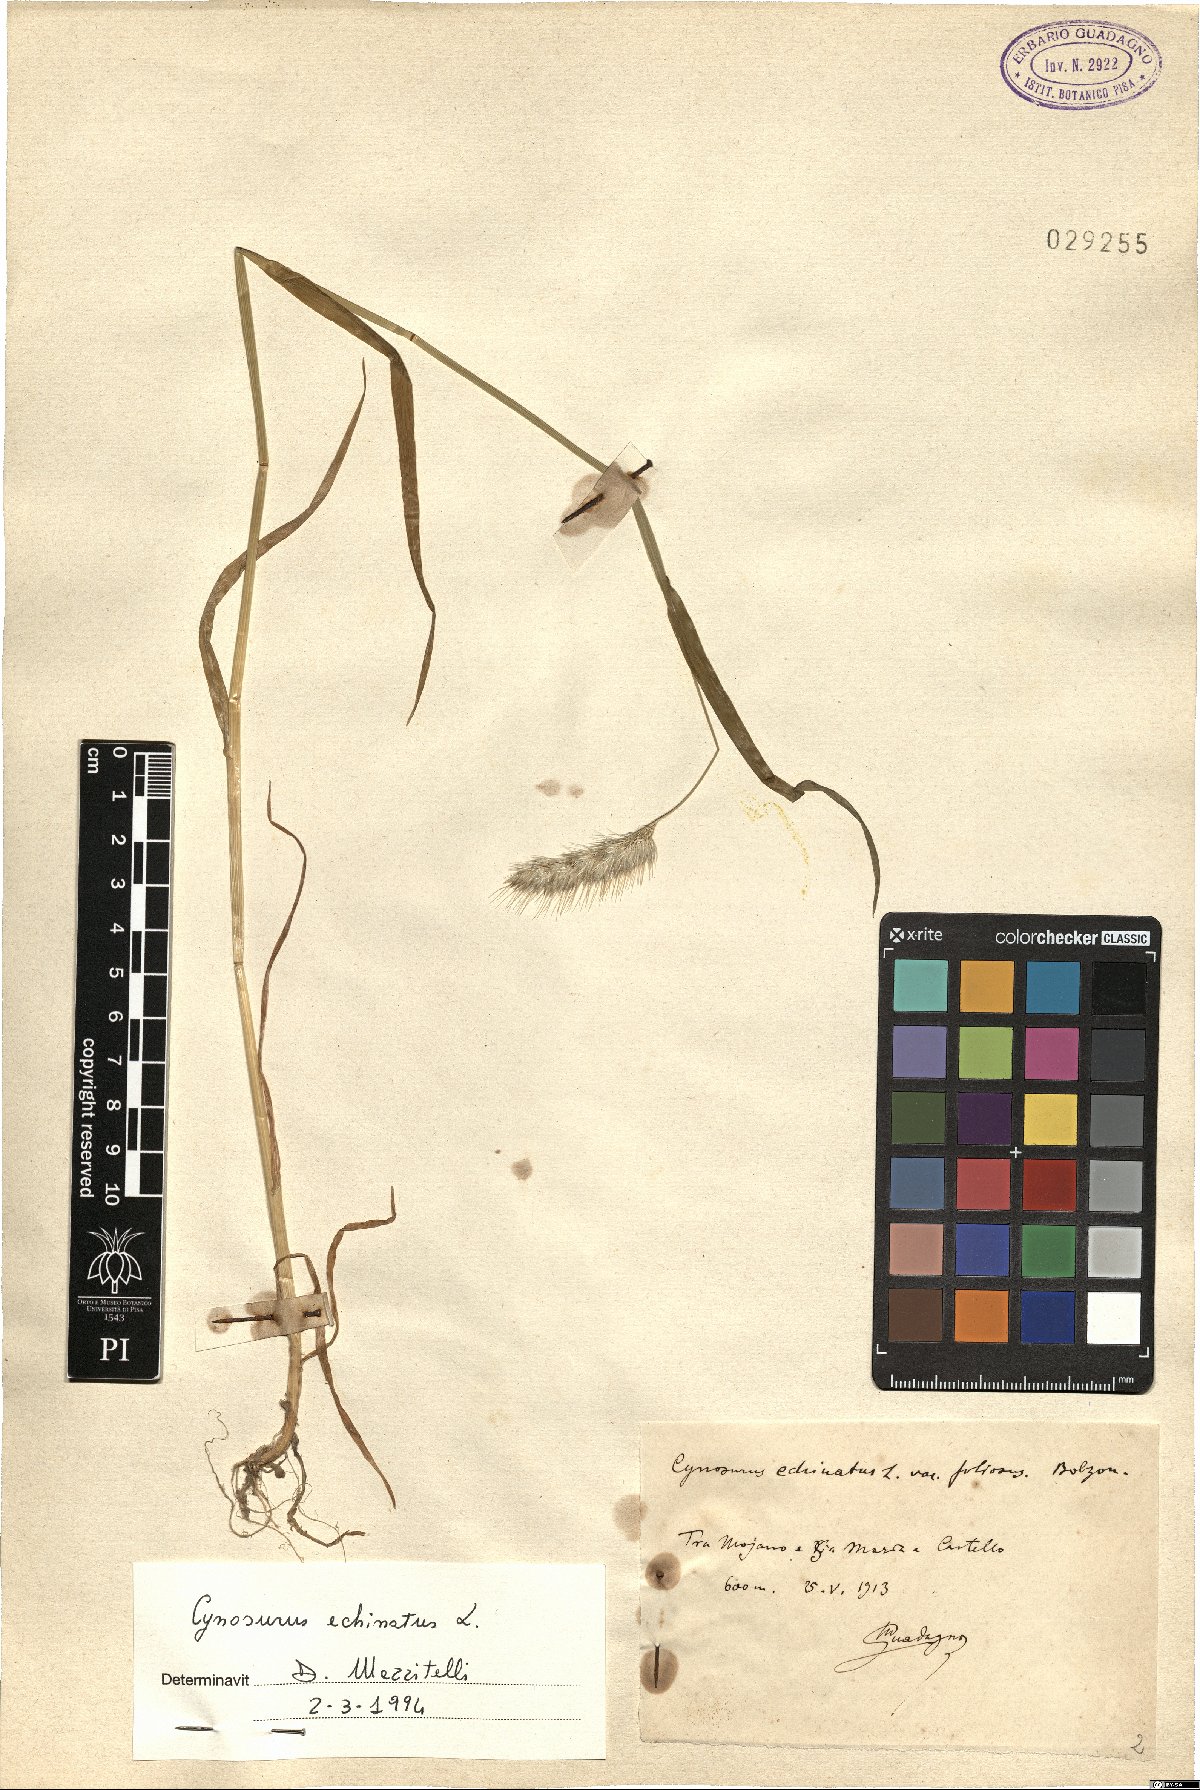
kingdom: Plantae
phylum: Tracheophyta
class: Liliopsida
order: Poales
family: Poaceae
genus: Cynosurus
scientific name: Cynosurus echinatus
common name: Rough dog's-tail
